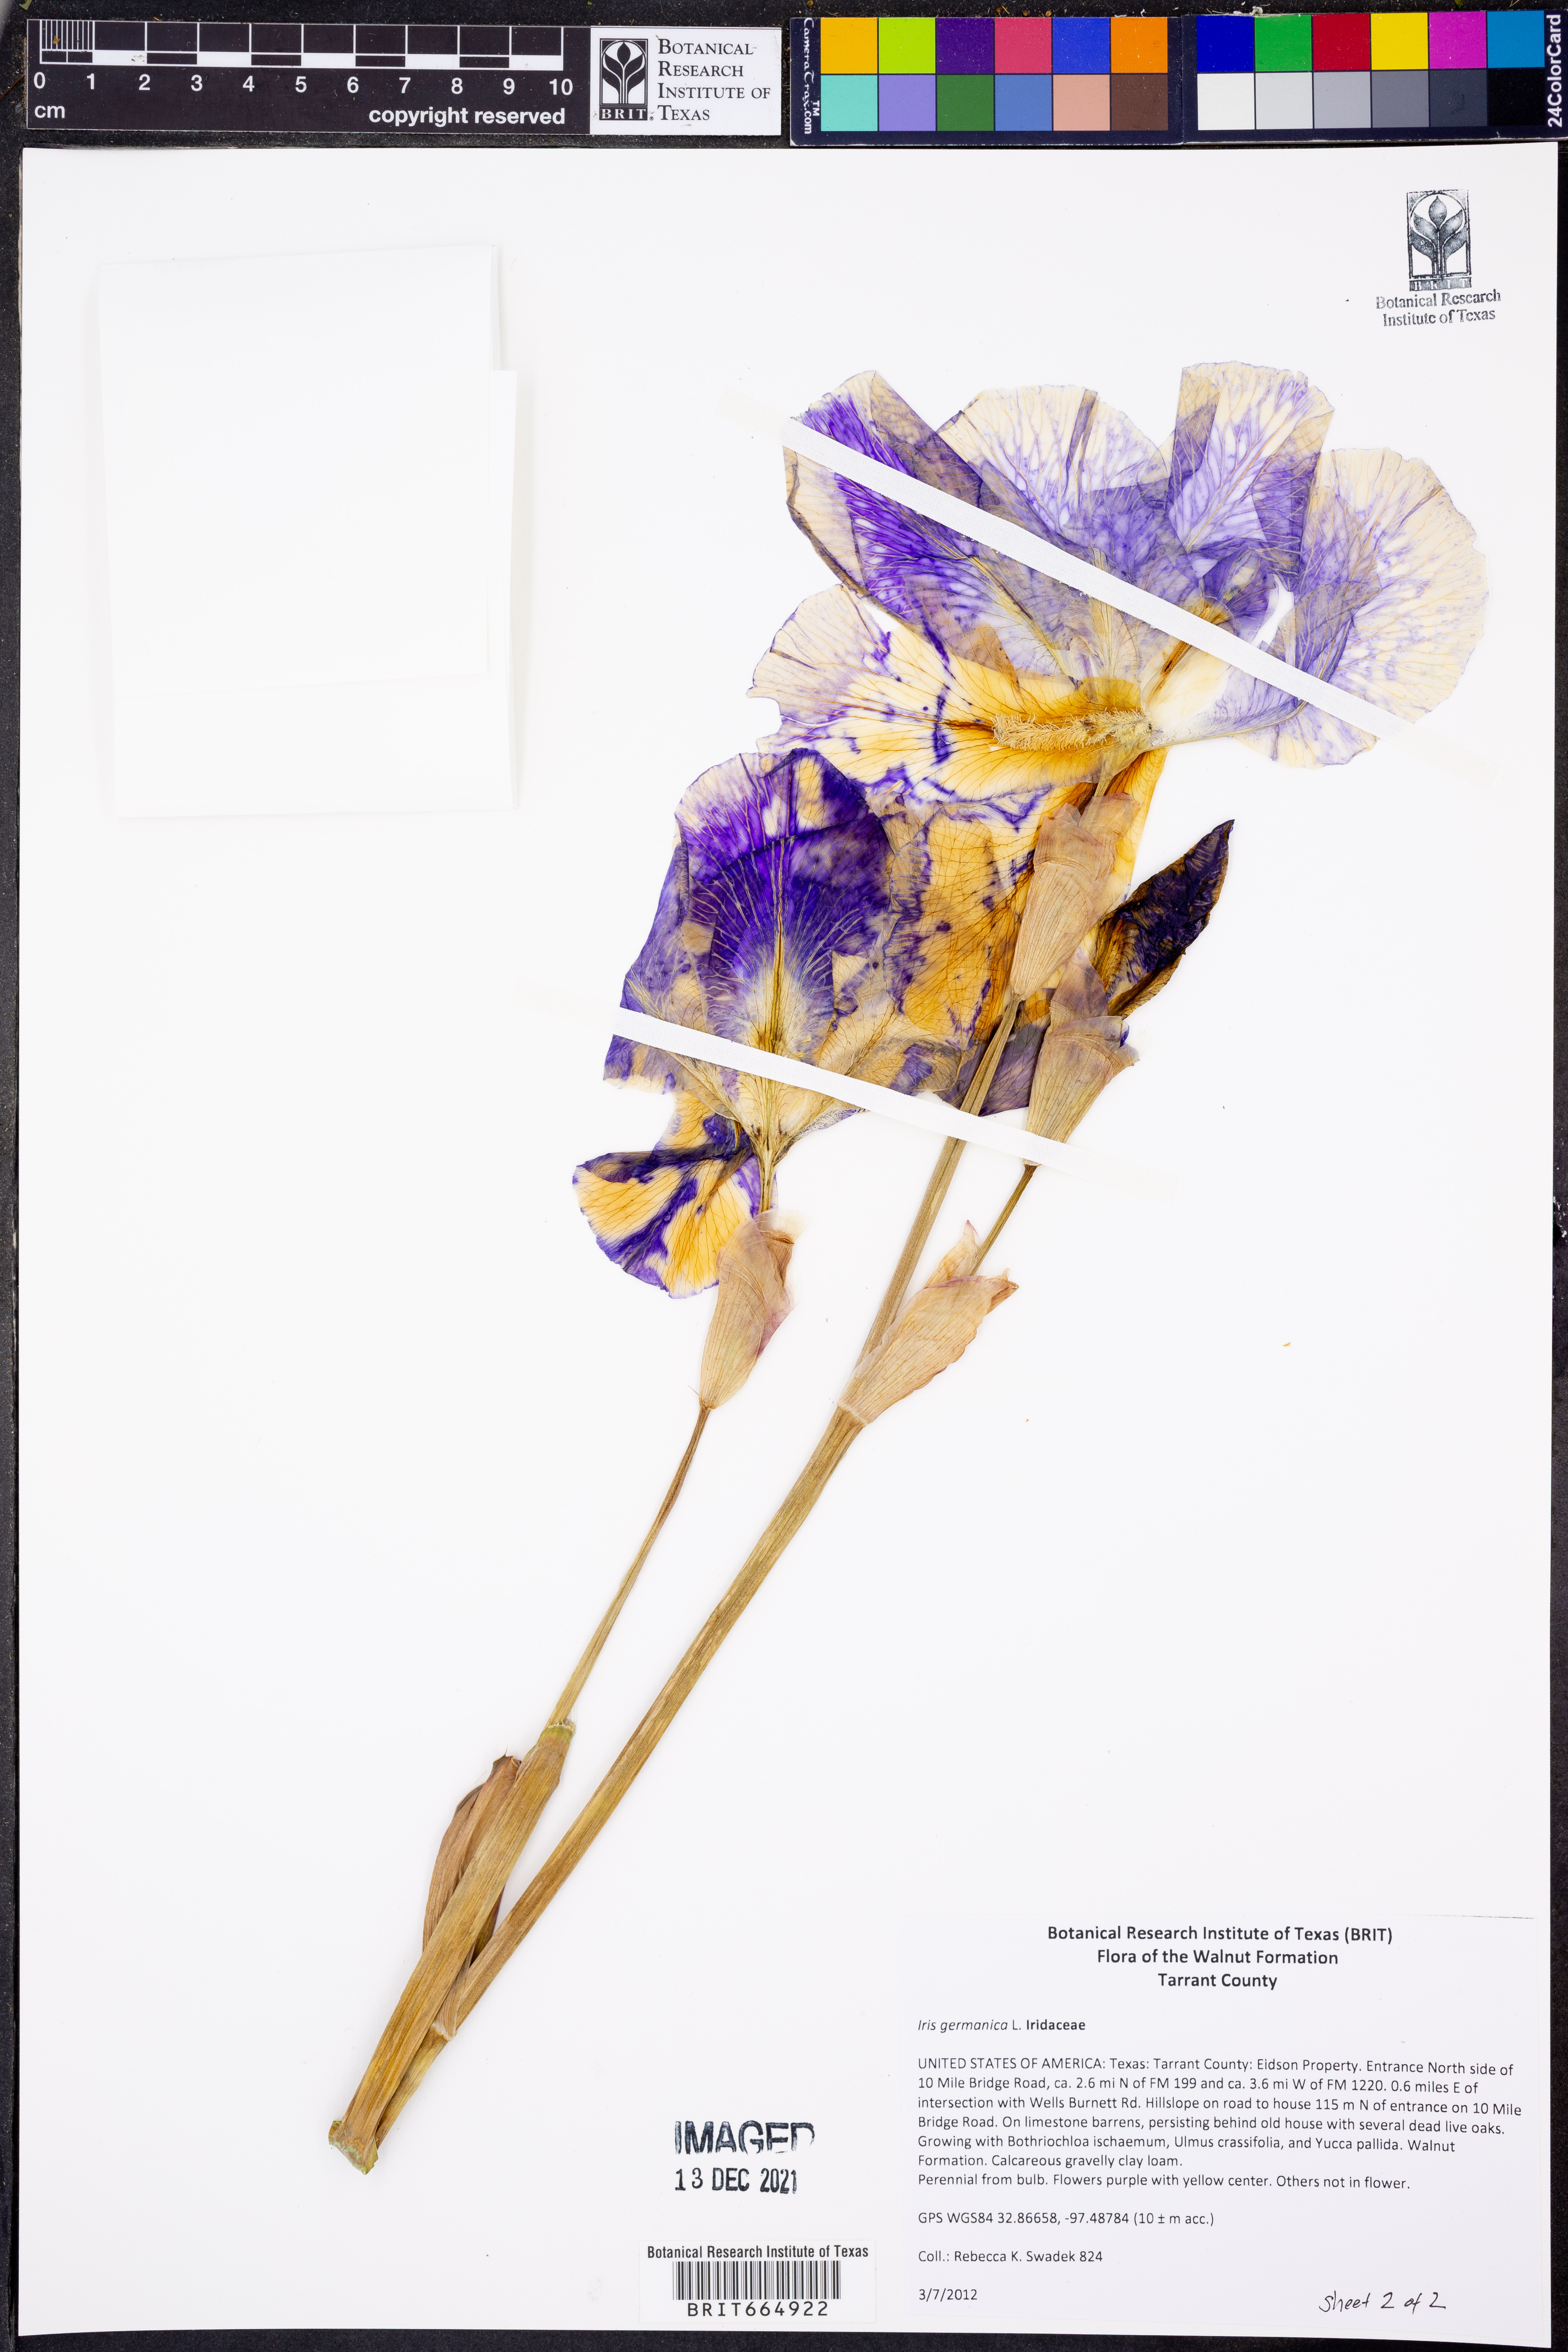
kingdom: Plantae
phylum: Tracheophyta
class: Liliopsida
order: Asparagales
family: Iridaceae
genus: Iris
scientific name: Iris germanica
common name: German iris
